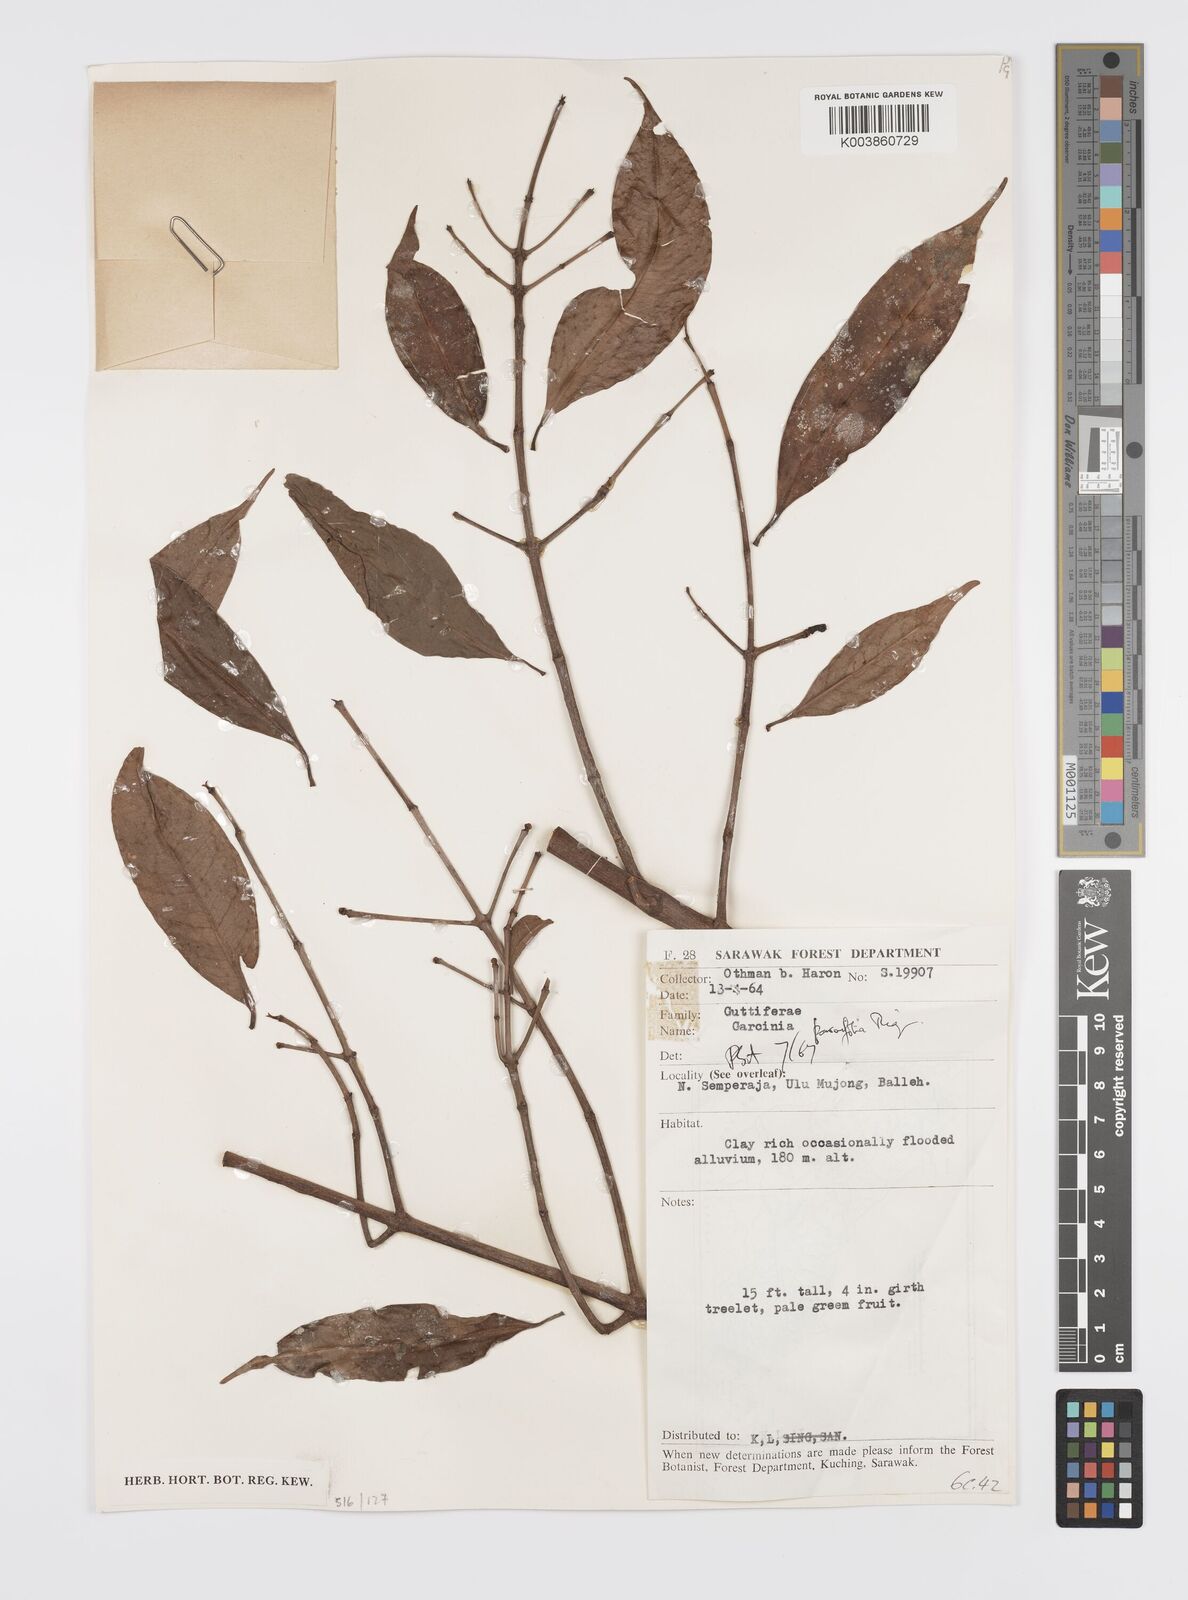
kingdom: Plantae
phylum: Tracheophyta
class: Magnoliopsida
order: Malpighiales
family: Clusiaceae
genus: Garcinia
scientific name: Garcinia parvifolia
